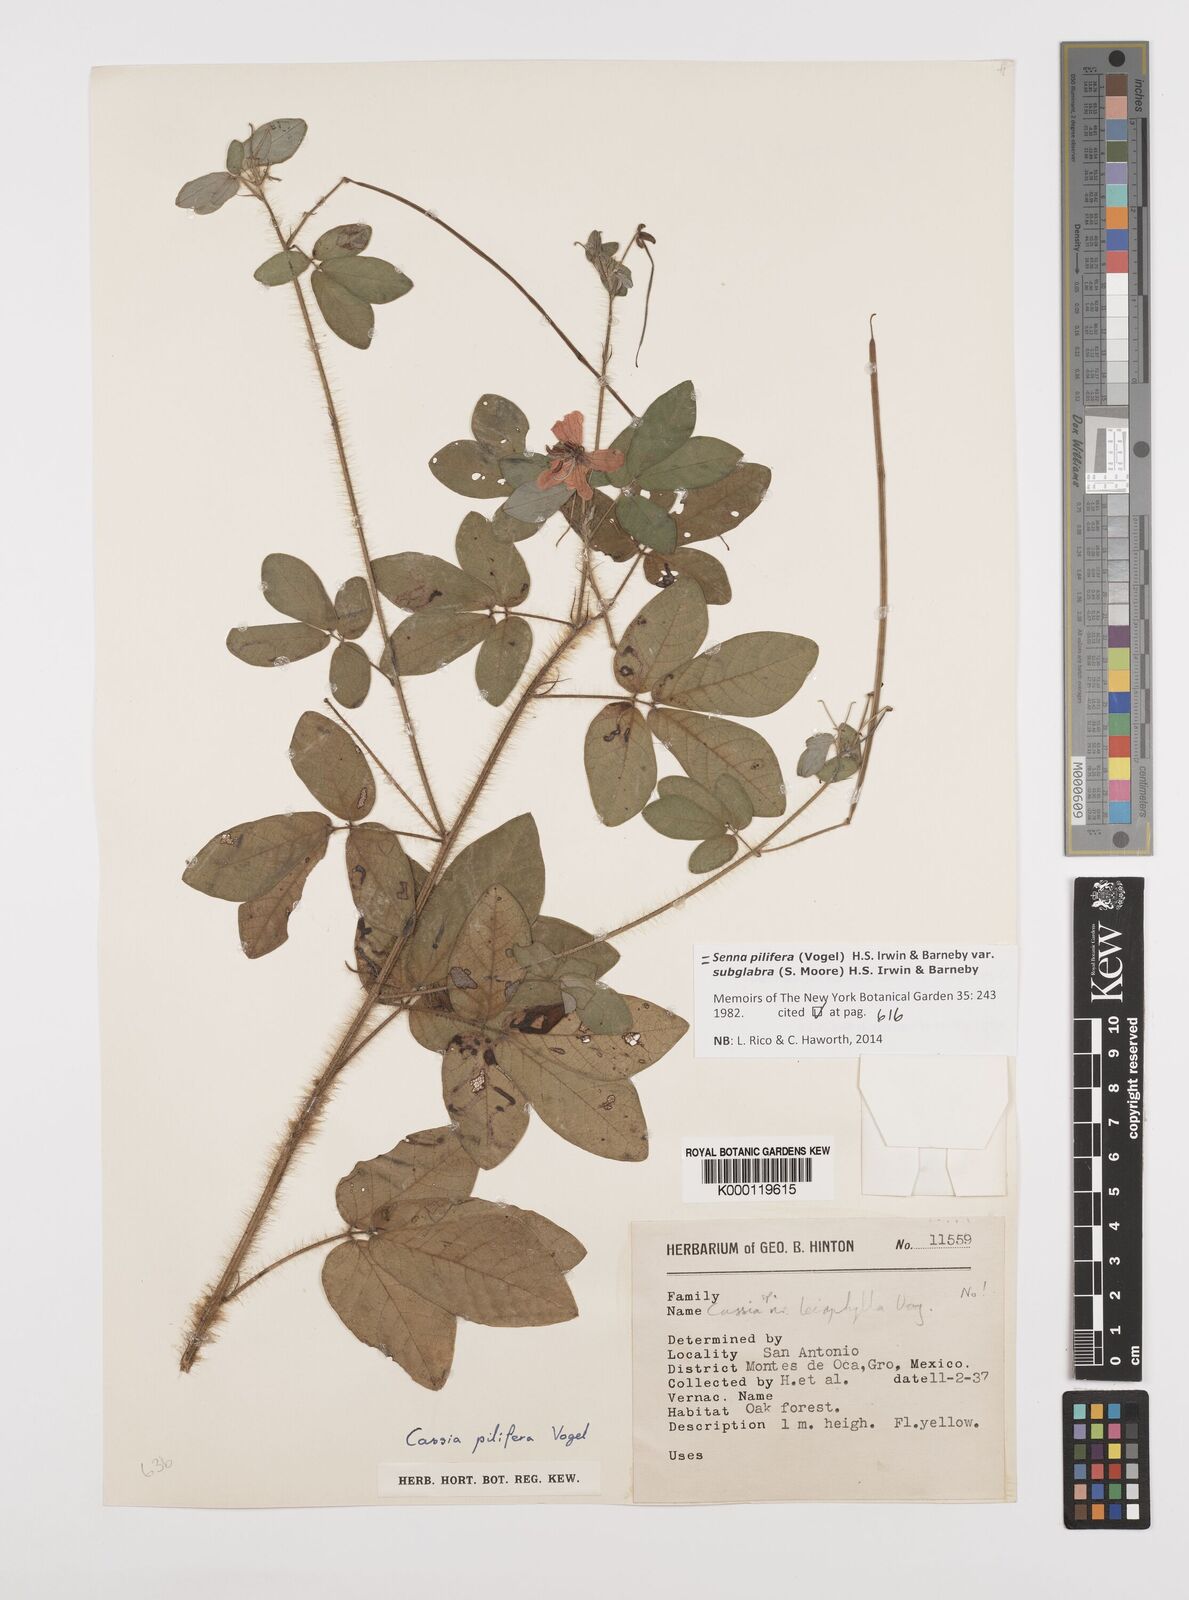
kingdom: Plantae
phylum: Tracheophyta
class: Magnoliopsida
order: Fabales
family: Fabaceae
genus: Senna
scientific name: Senna pilifera
